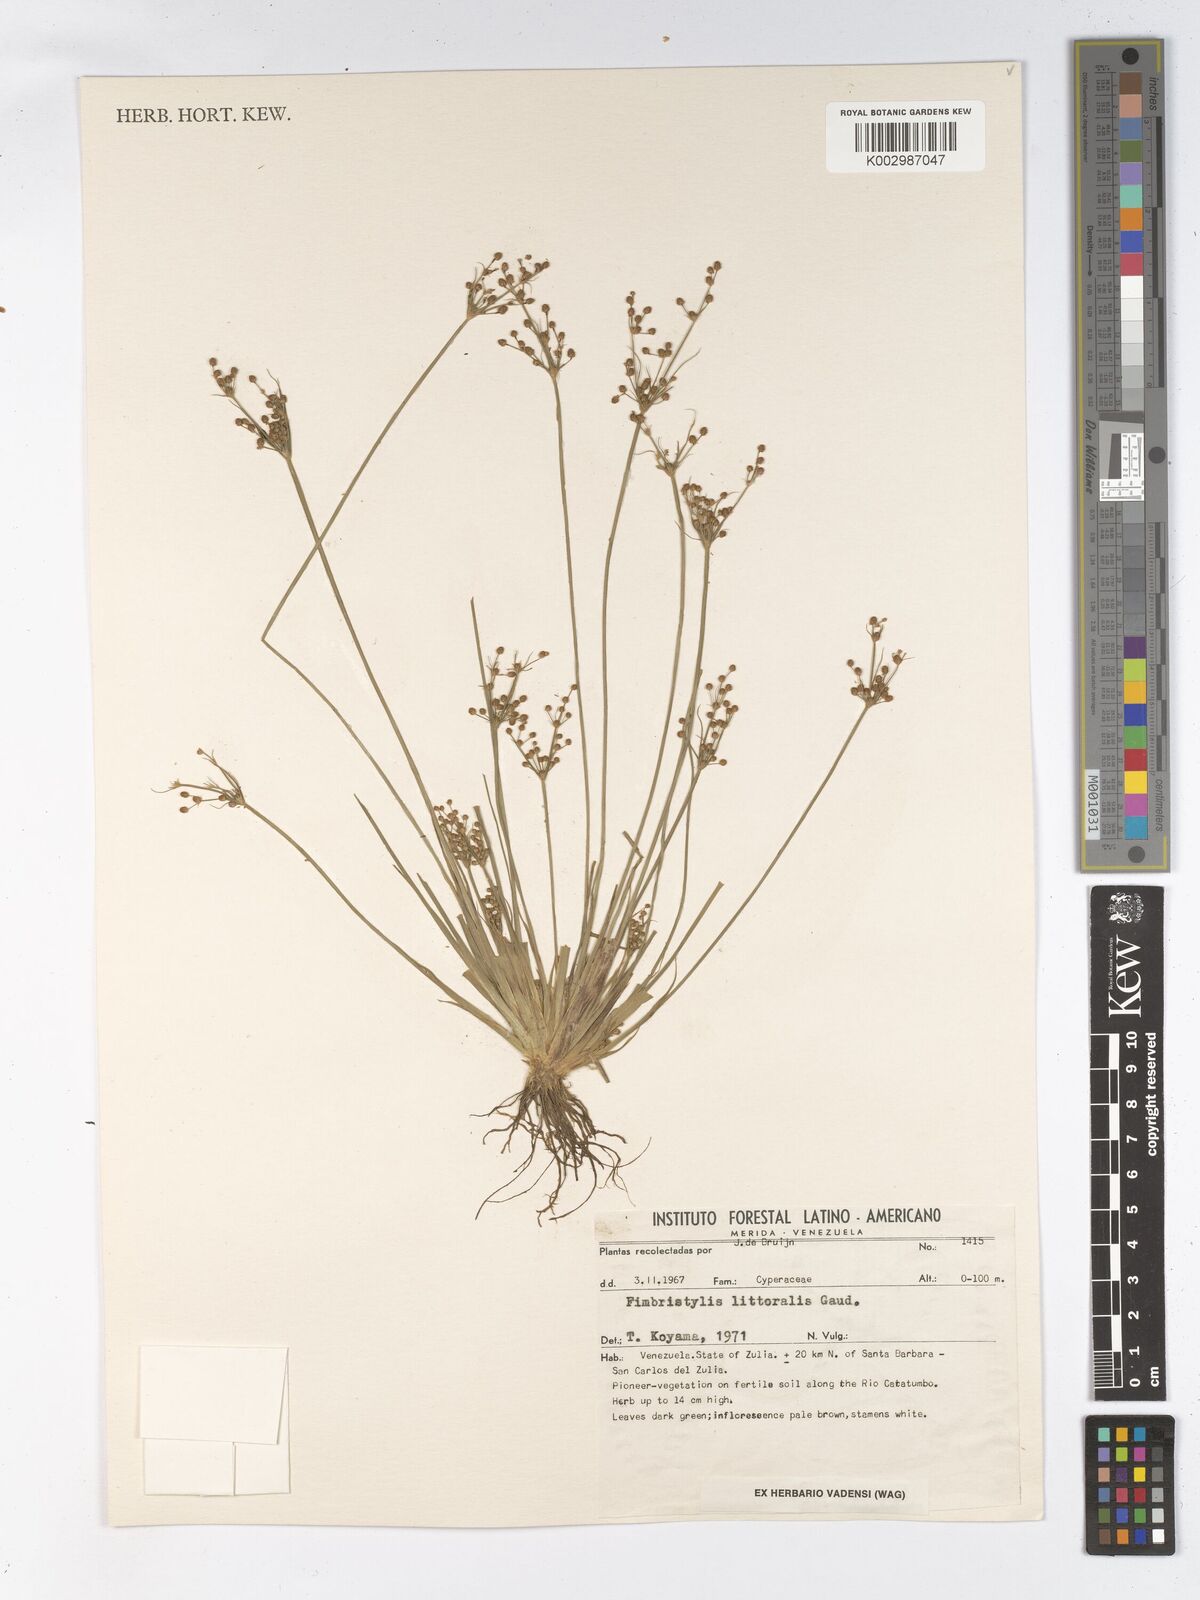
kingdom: Plantae
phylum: Tracheophyta
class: Liliopsida
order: Poales
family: Cyperaceae
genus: Fimbristylis
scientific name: Fimbristylis littoralis
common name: Fimbry
